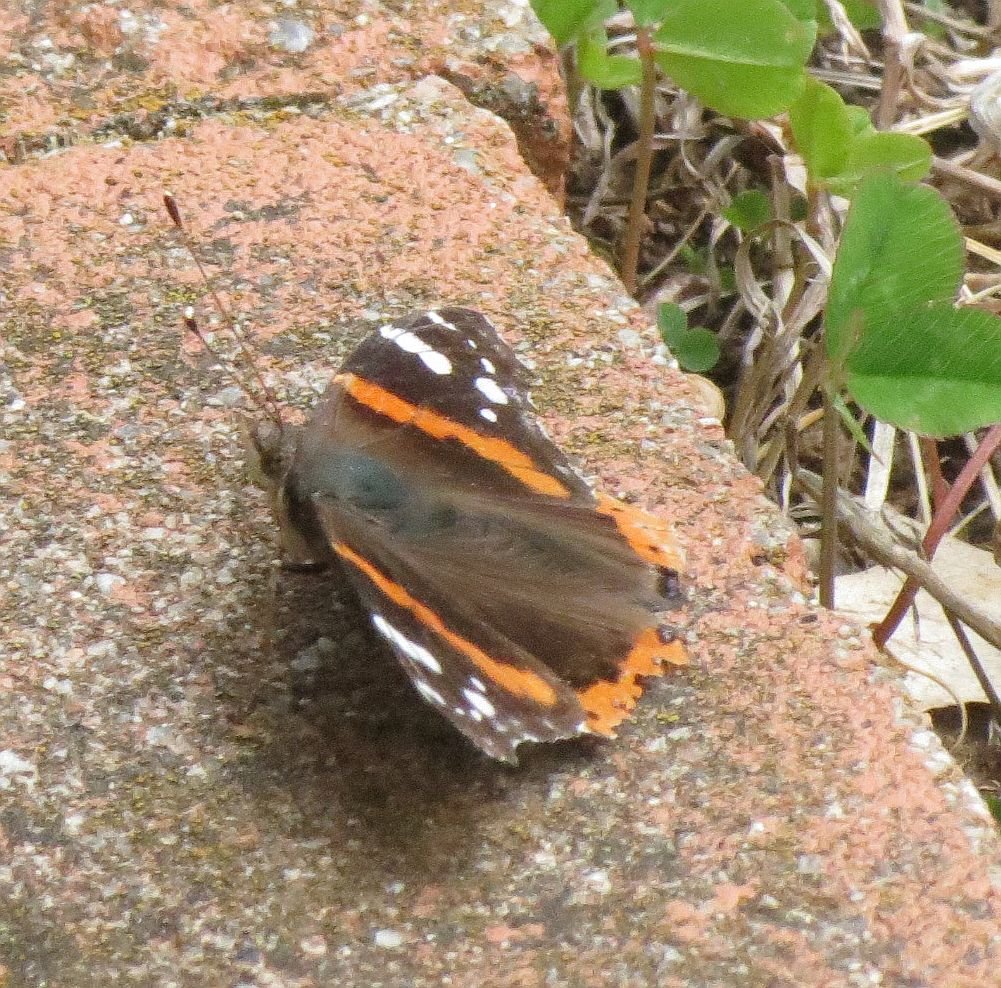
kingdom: Animalia
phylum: Arthropoda
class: Insecta
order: Lepidoptera
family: Nymphalidae
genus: Vanessa
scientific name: Vanessa atalanta
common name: Red Admiral
